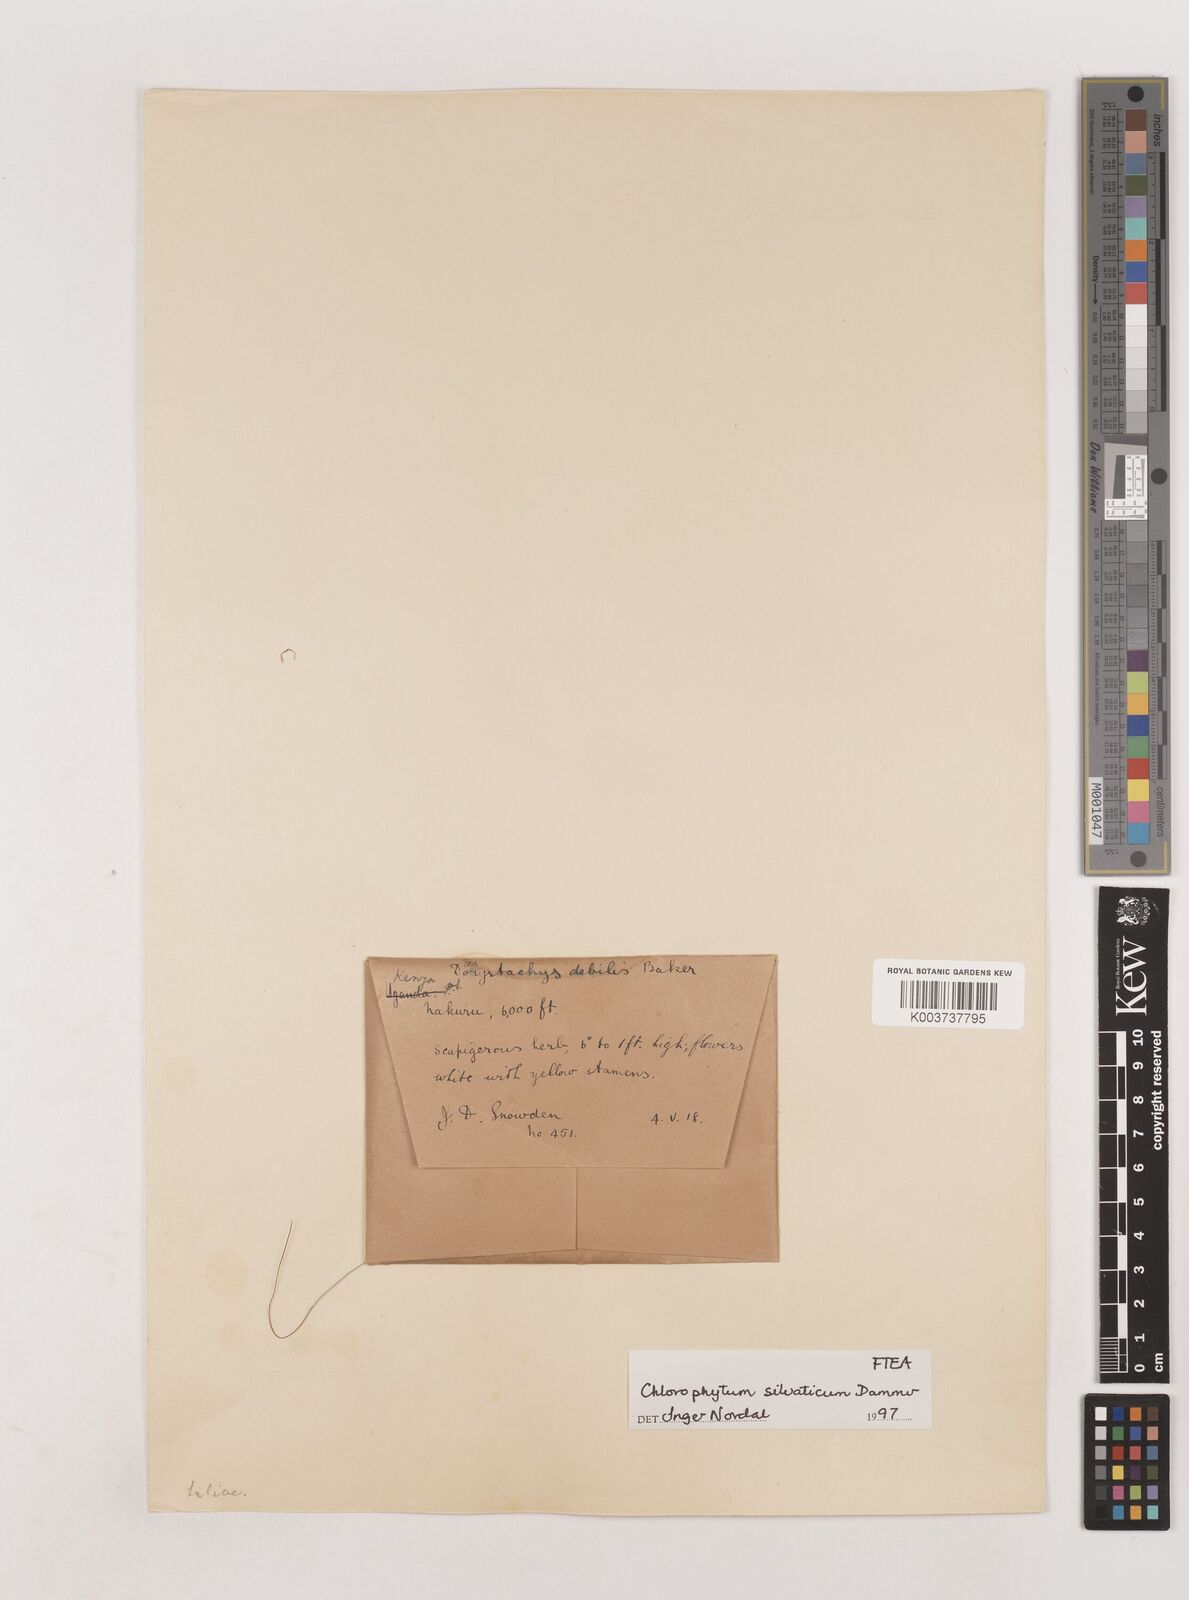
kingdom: Plantae
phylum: Tracheophyta
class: Liliopsida
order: Asparagales
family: Asparagaceae
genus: Chlorophytum
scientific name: Chlorophytum africanum
